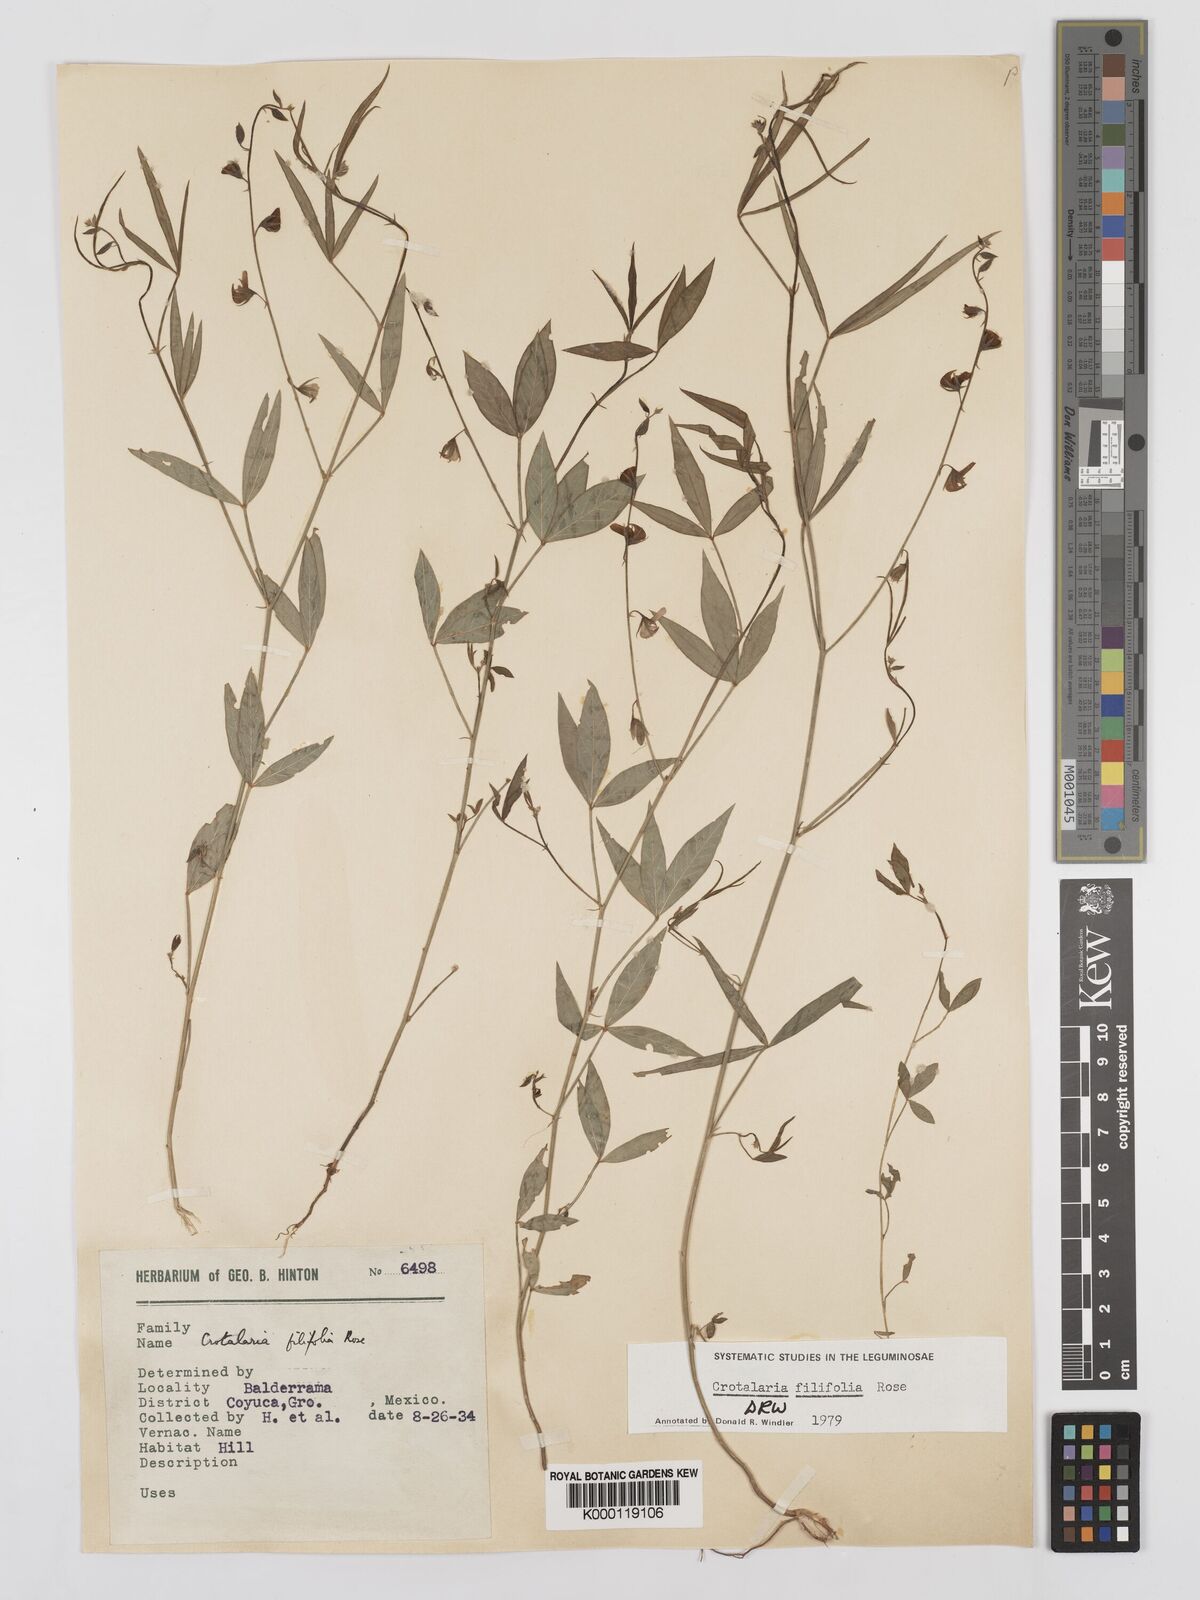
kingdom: Plantae
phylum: Tracheophyta
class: Magnoliopsida
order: Fabales
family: Fabaceae
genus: Crotalaria
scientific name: Crotalaria filifolia
